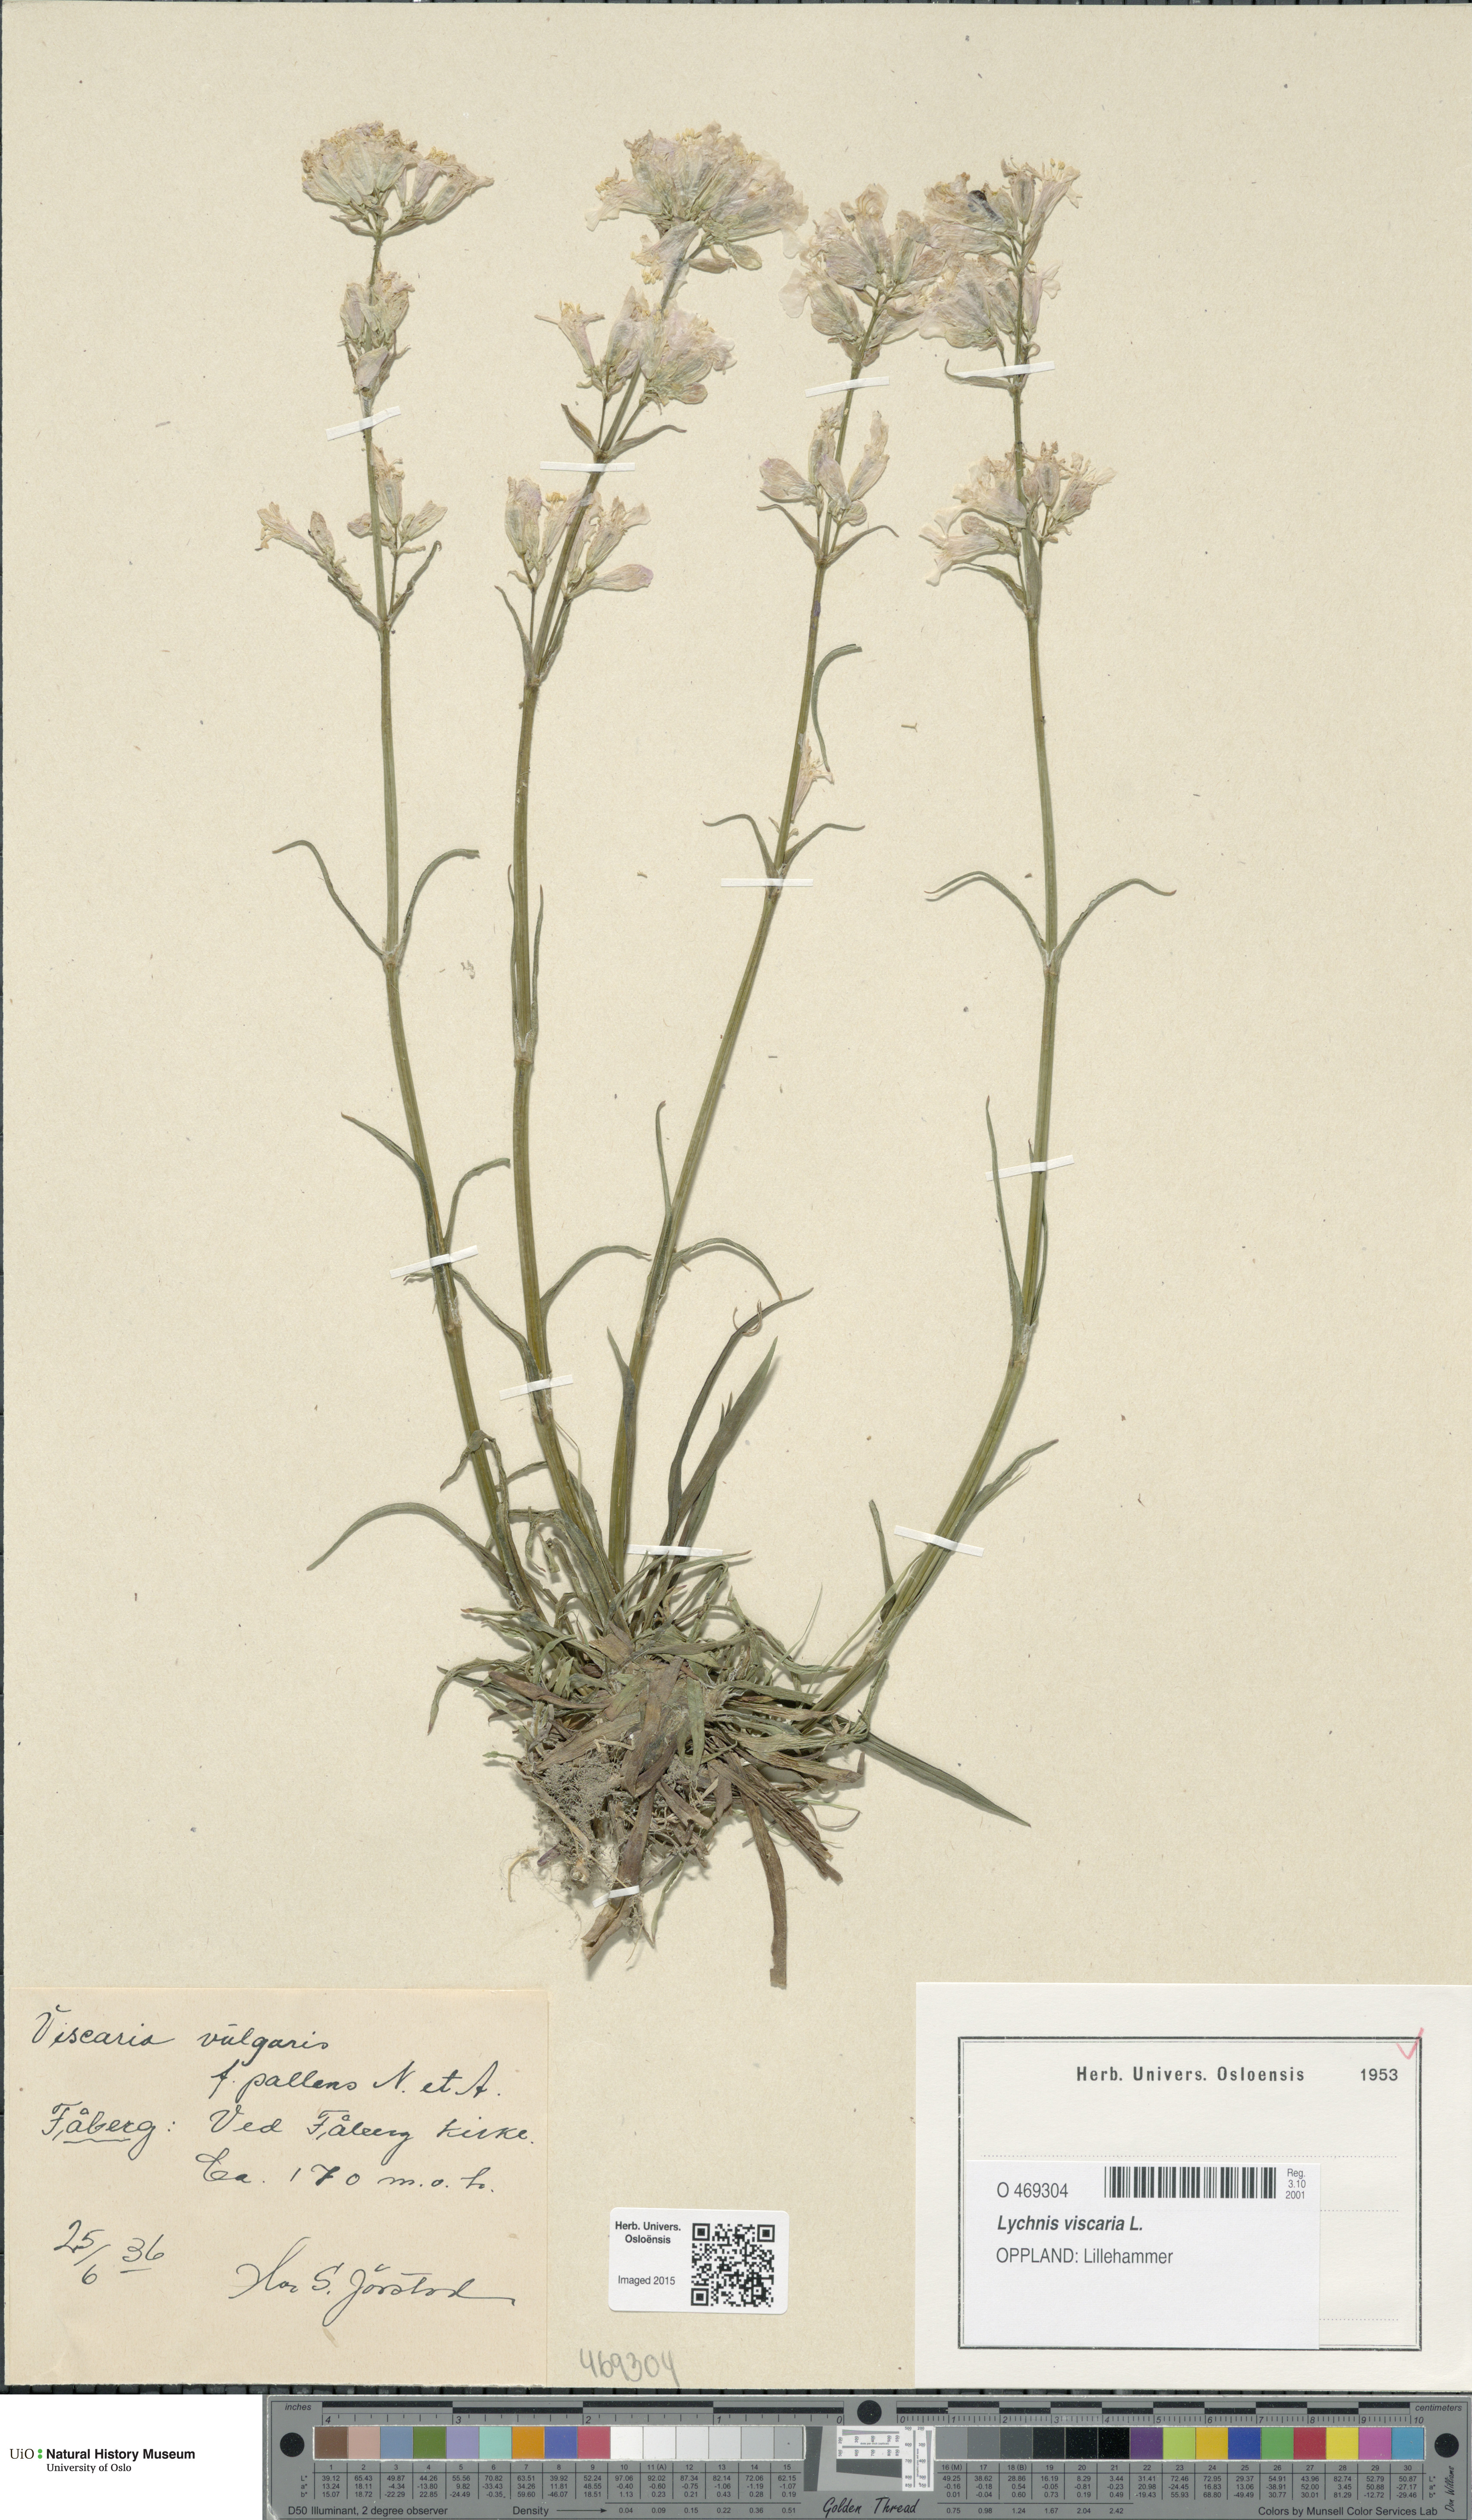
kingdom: Plantae
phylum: Tracheophyta
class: Magnoliopsida
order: Caryophyllales
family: Caryophyllaceae
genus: Viscaria
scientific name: Viscaria vulgaris
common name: Clammy campion
